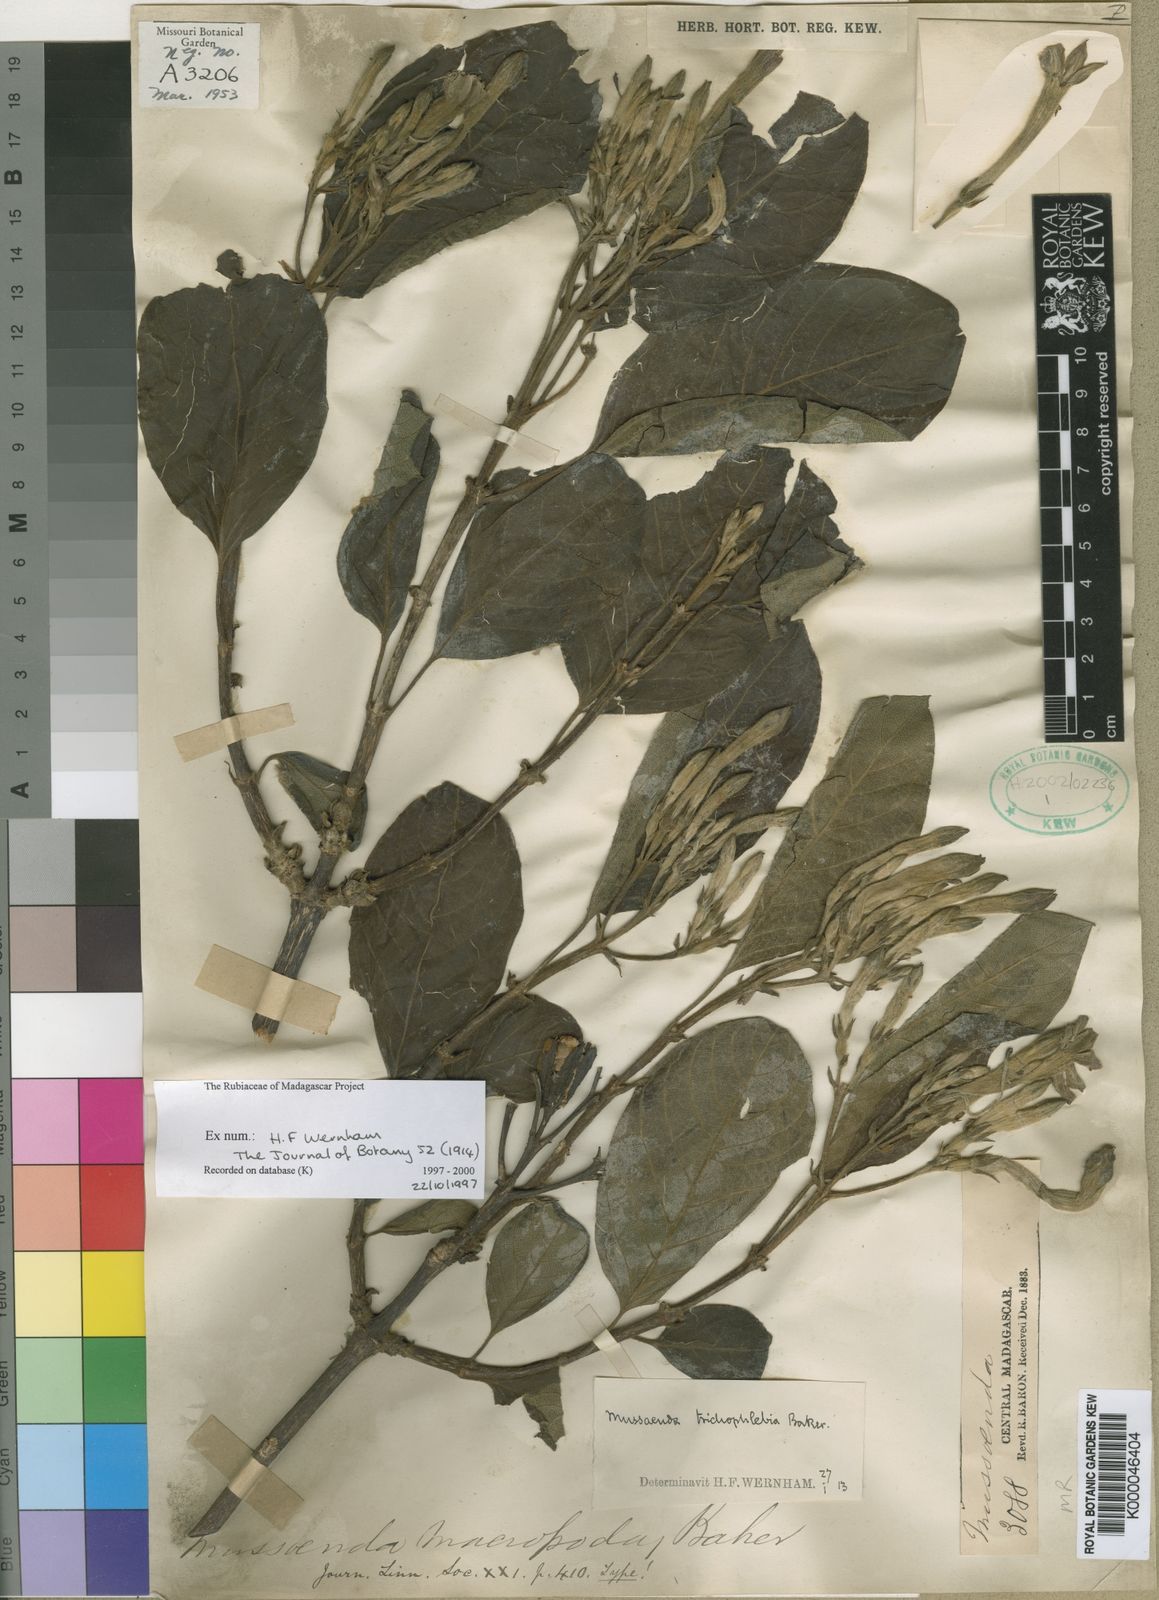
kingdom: Plantae
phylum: Tracheophyta
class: Magnoliopsida
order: Gentianales
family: Rubiaceae
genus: Bremeria
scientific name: Bremeria trichophlebia
